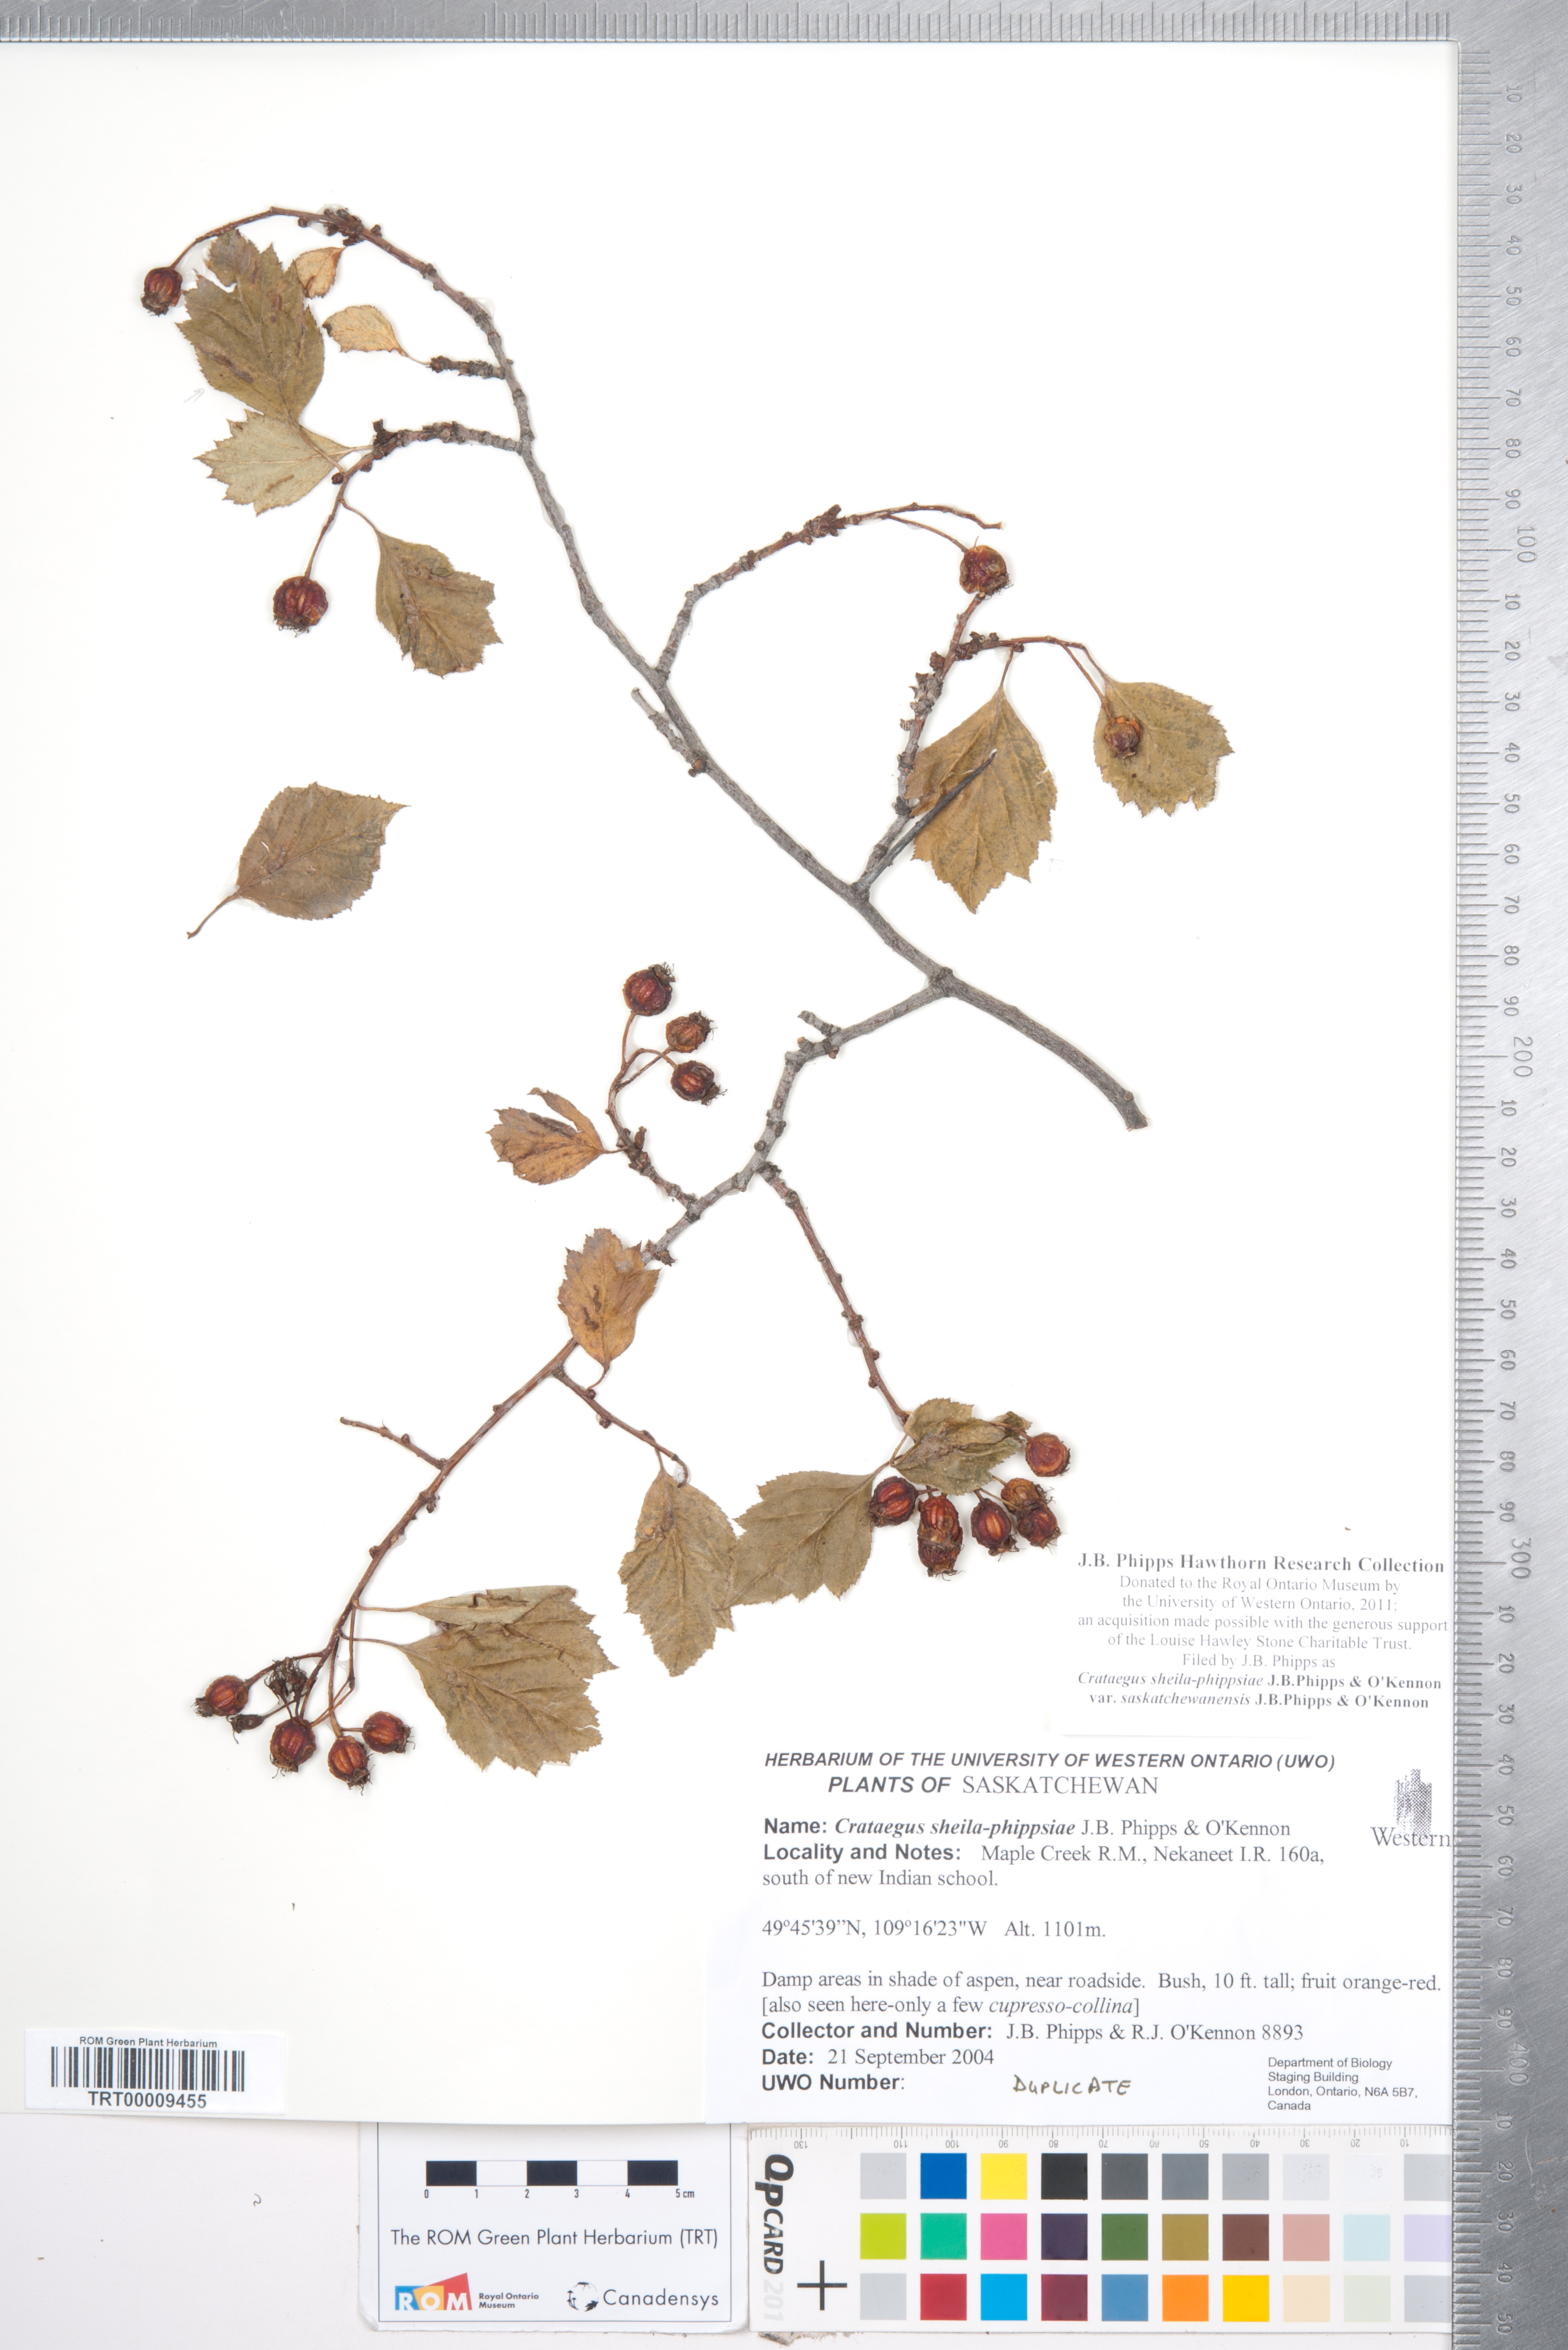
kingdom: Plantae
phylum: Tracheophyta
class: Magnoliopsida
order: Rosales
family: Rosaceae
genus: Crataegus
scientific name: Crataegus sheila-phippsiae
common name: Sheila phipps' hawthorn
